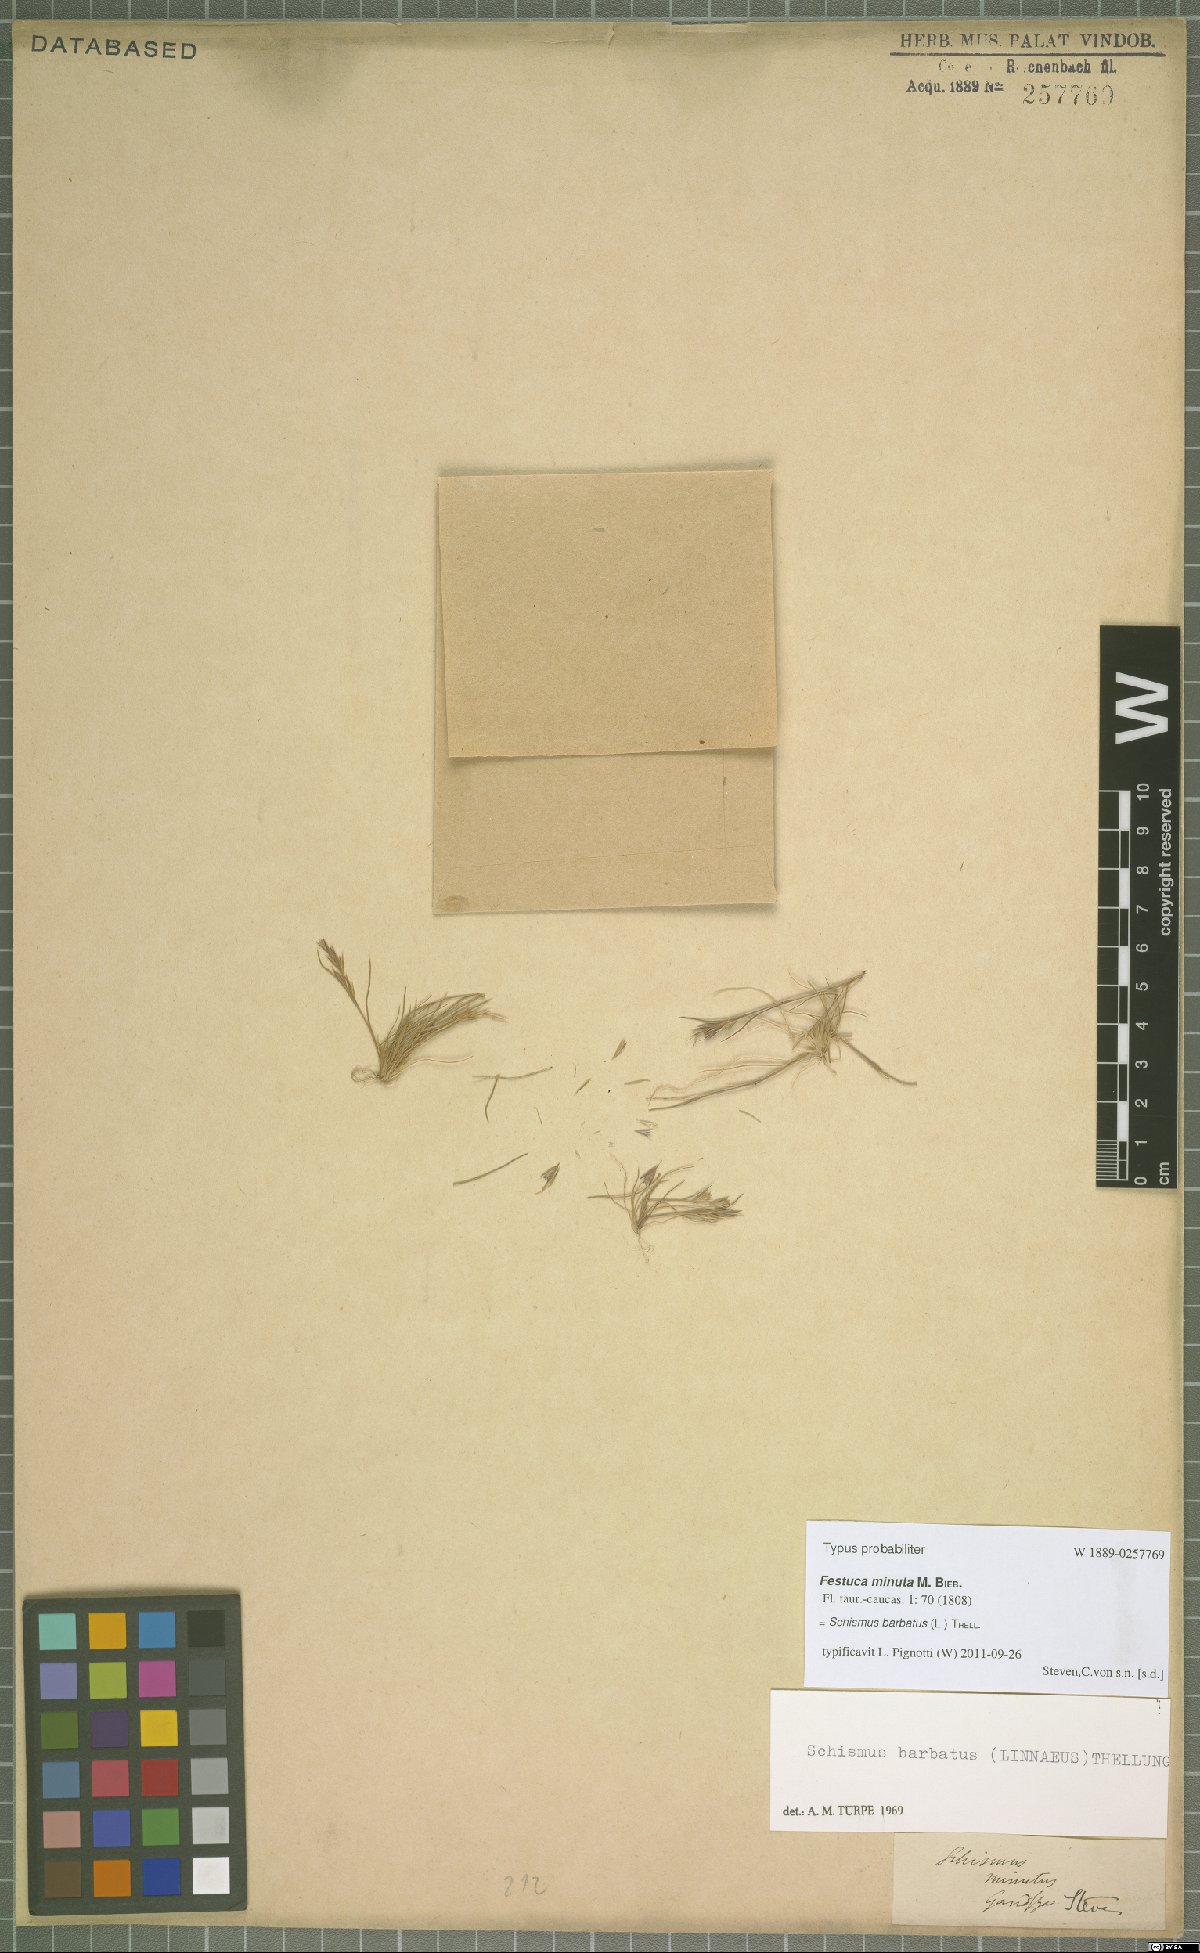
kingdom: Plantae
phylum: Tracheophyta
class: Liliopsida
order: Poales
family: Poaceae
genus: Schismus
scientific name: Schismus barbatus
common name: Kelch-grass
